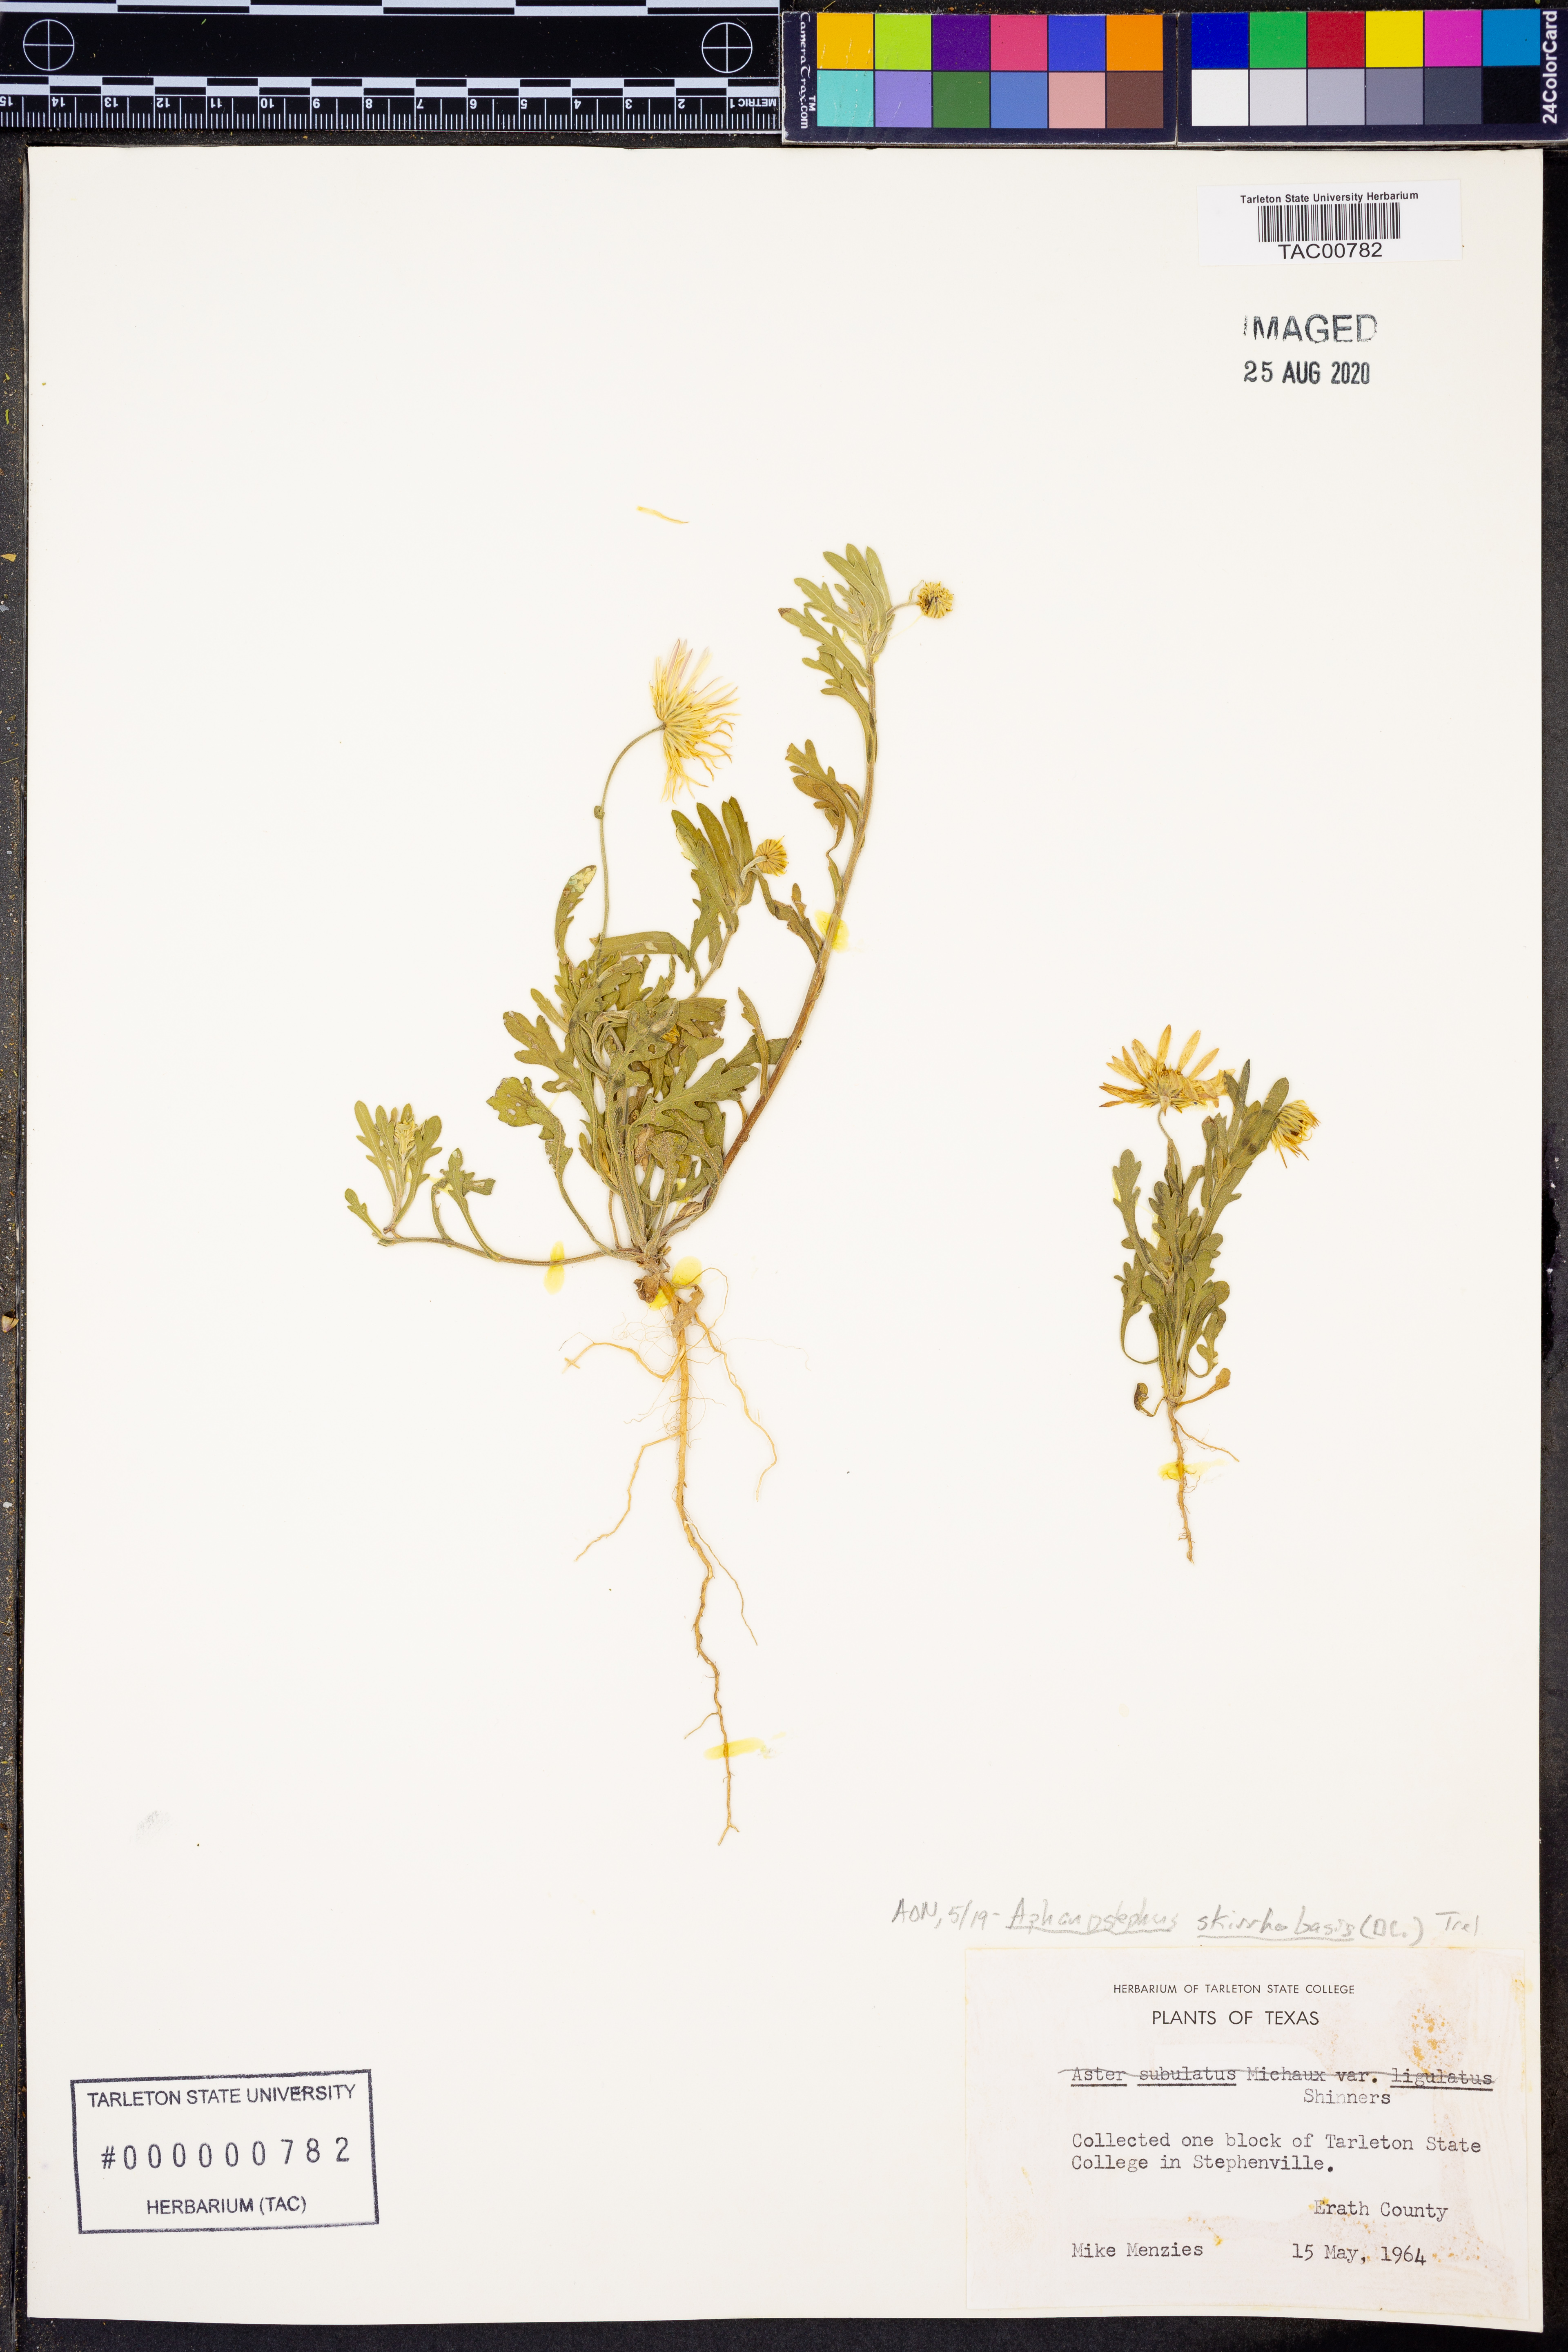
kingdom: Plantae
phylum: Tracheophyta
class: Magnoliopsida
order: Asterales
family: Asteraceae
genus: Aphanostephus
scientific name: Aphanostephus skirrhobasis
